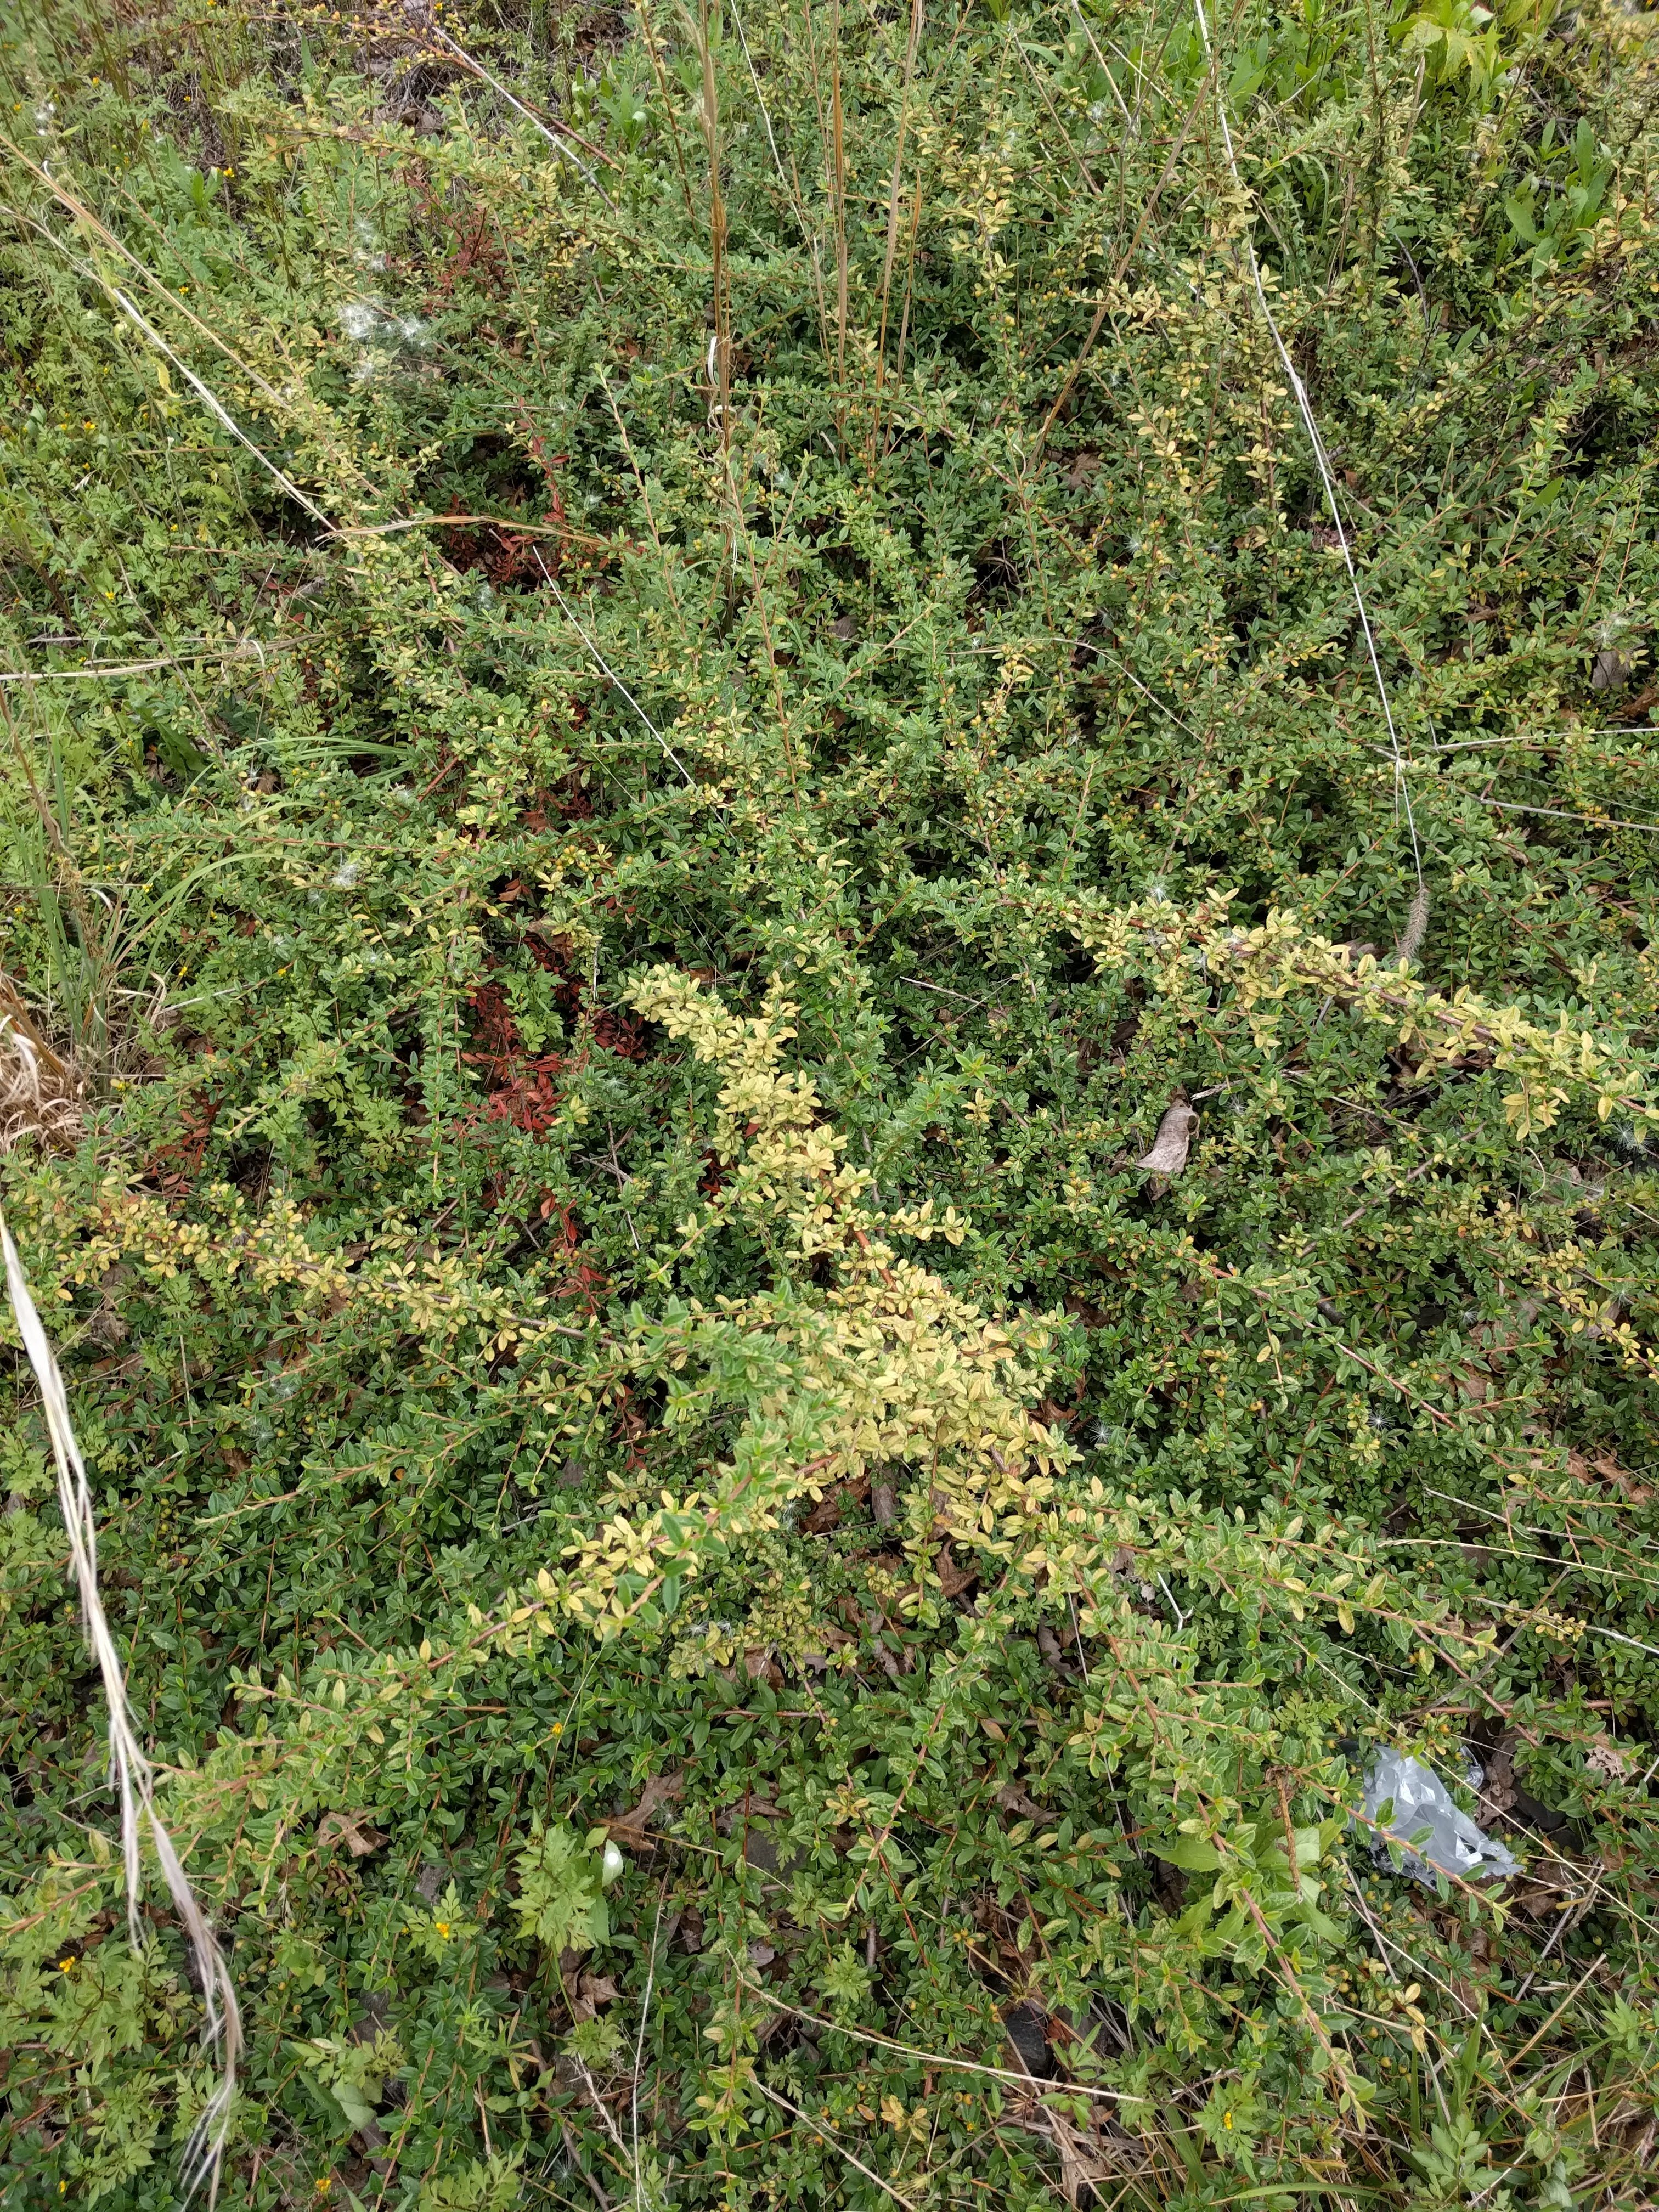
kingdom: Plantae
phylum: Tracheophyta
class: Magnoliopsida
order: Rosales
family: Rosaceae
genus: Cotoneaster
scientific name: Cotoneaster horizontalis
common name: Wall cotoneaster
